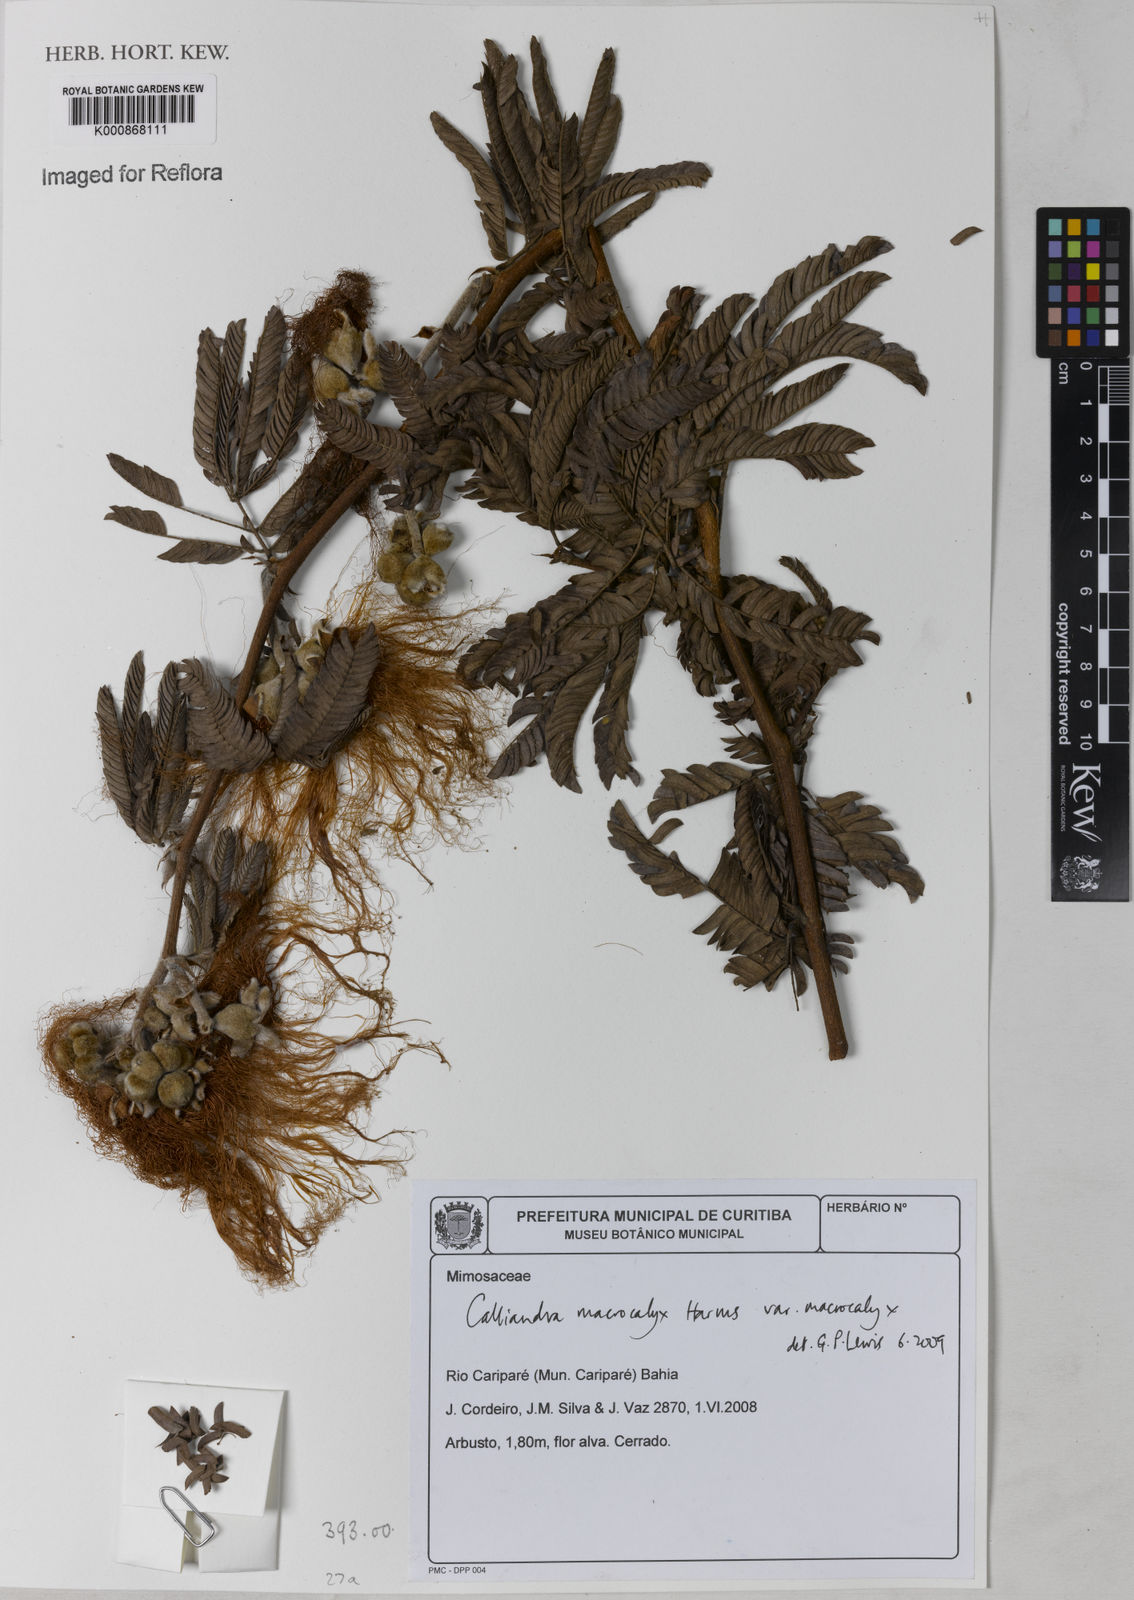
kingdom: Plantae
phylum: Tracheophyta
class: Magnoliopsida
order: Fabales
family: Fabaceae
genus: Calliandra
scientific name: Calliandra macrocalyx
